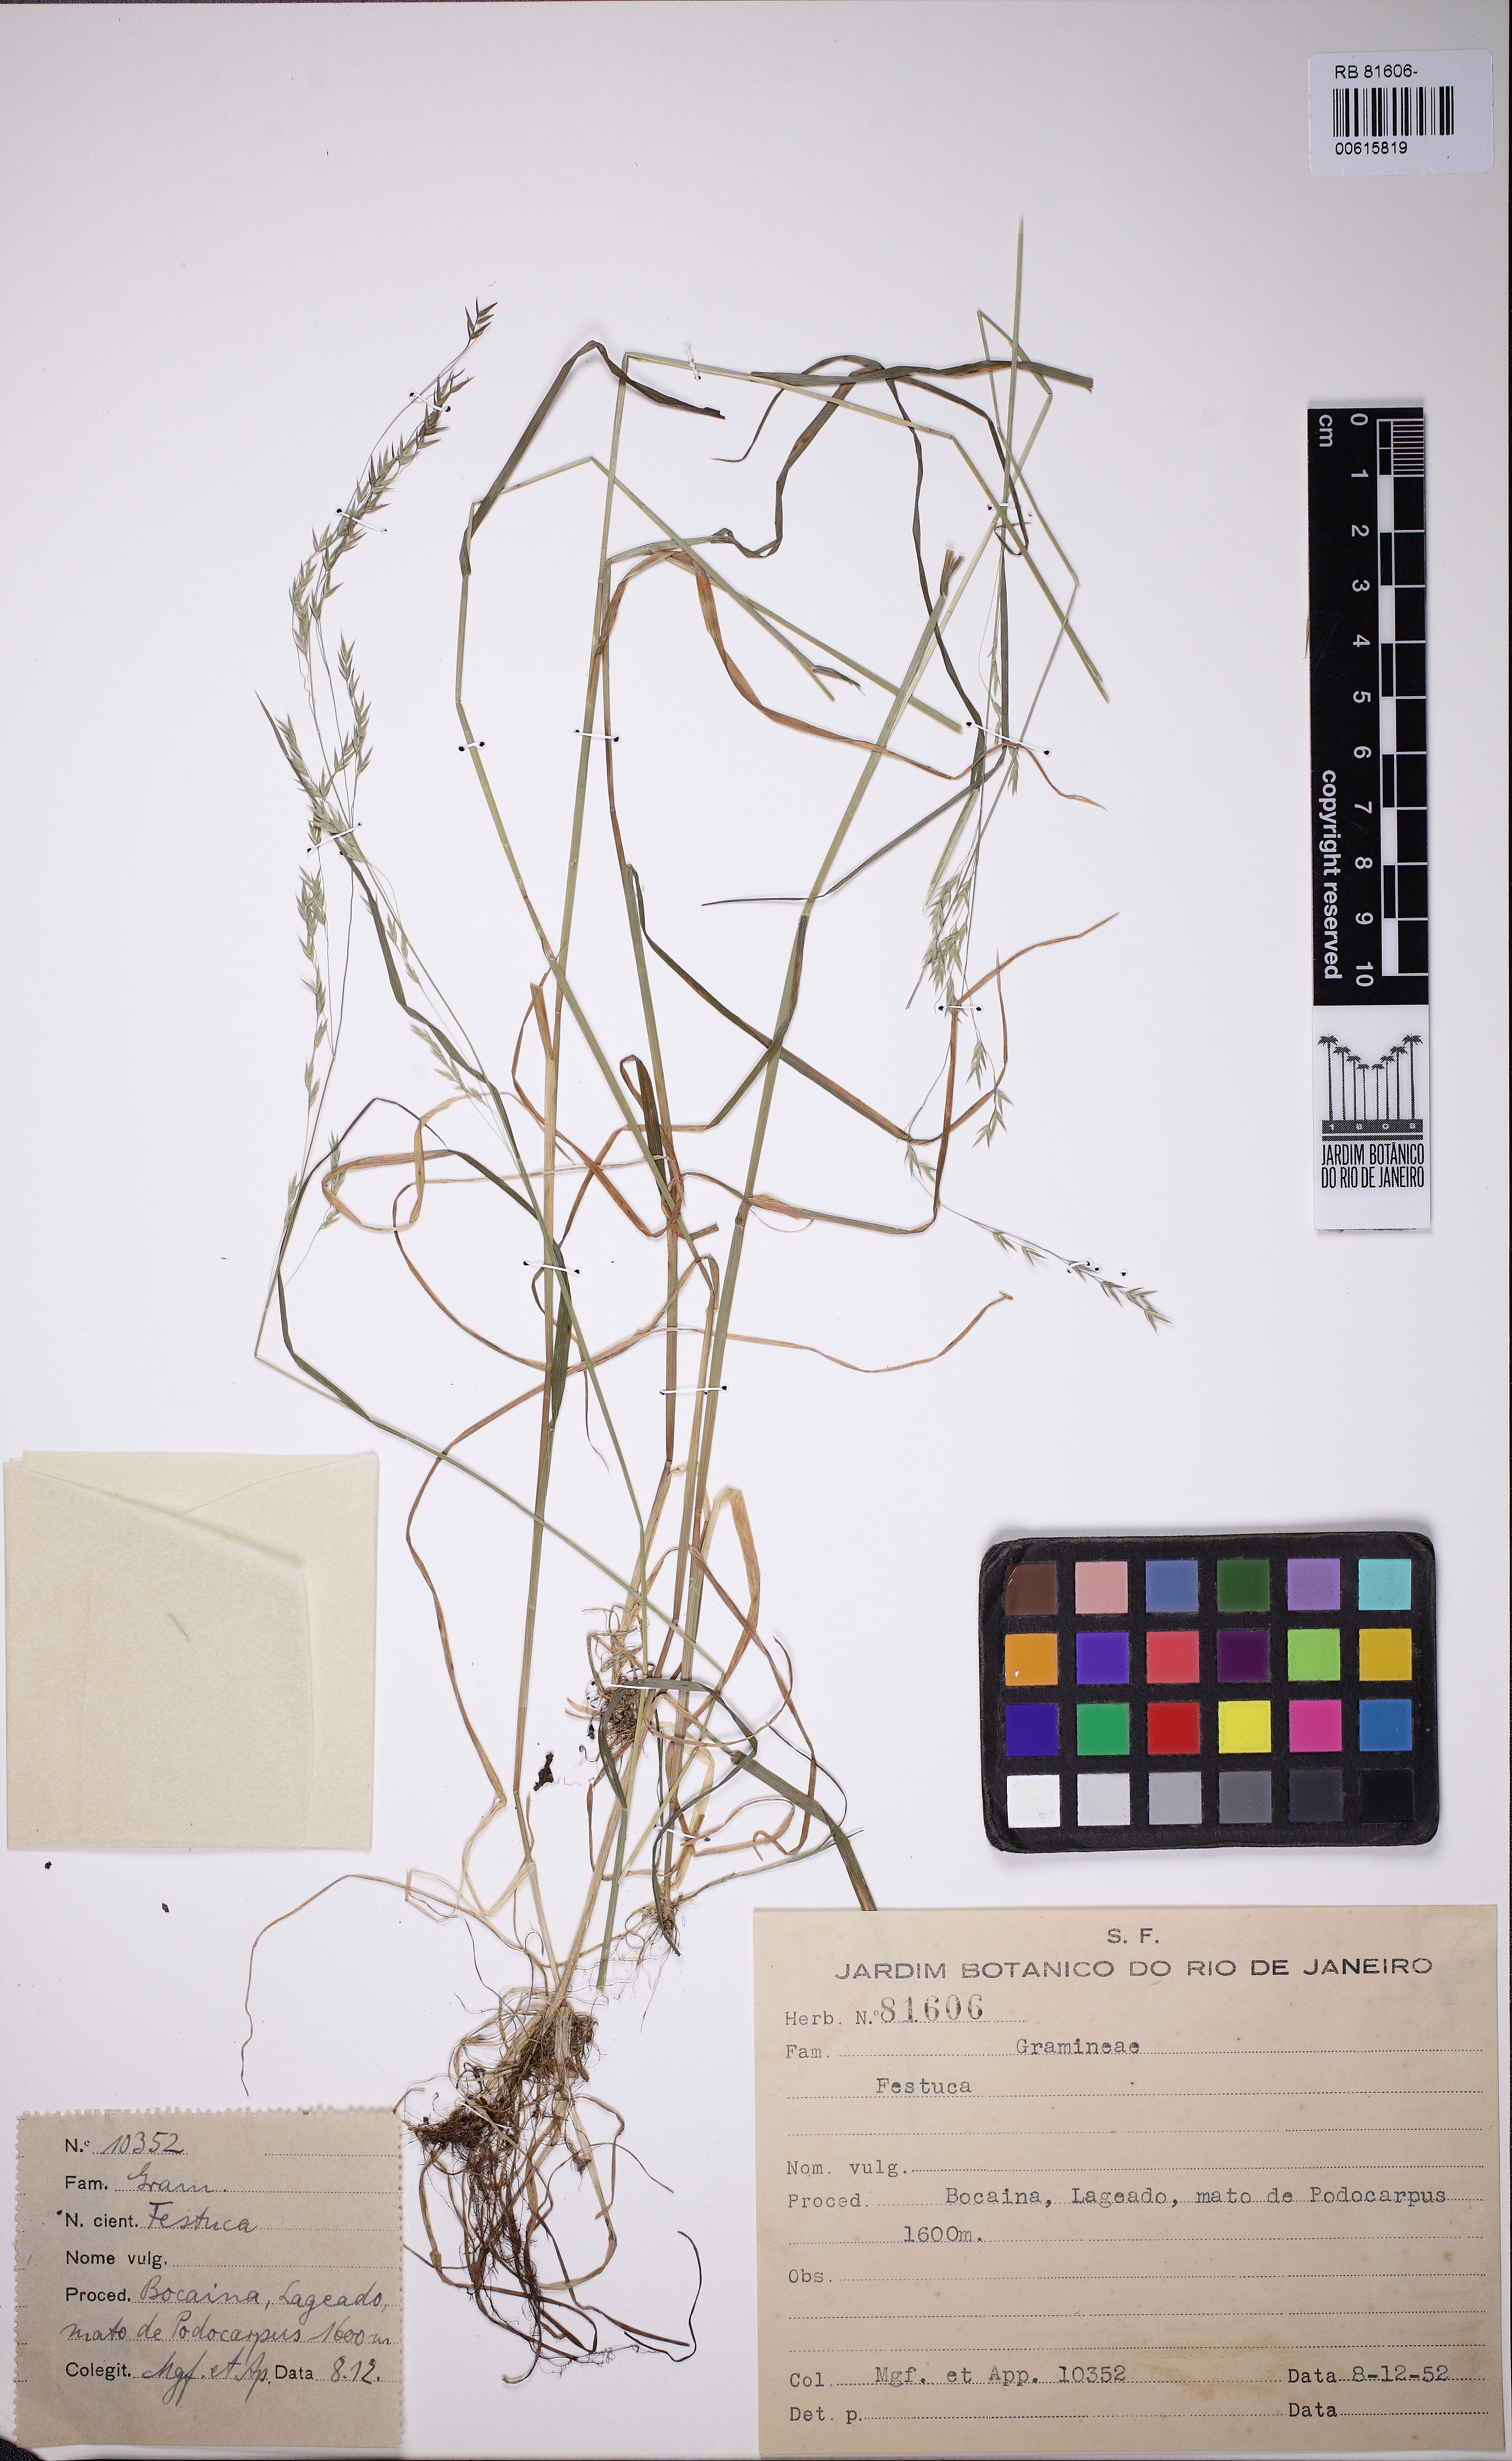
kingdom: Plantae
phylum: Tracheophyta
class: Liliopsida
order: Poales
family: Poaceae
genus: Festuca
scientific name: Festuca
